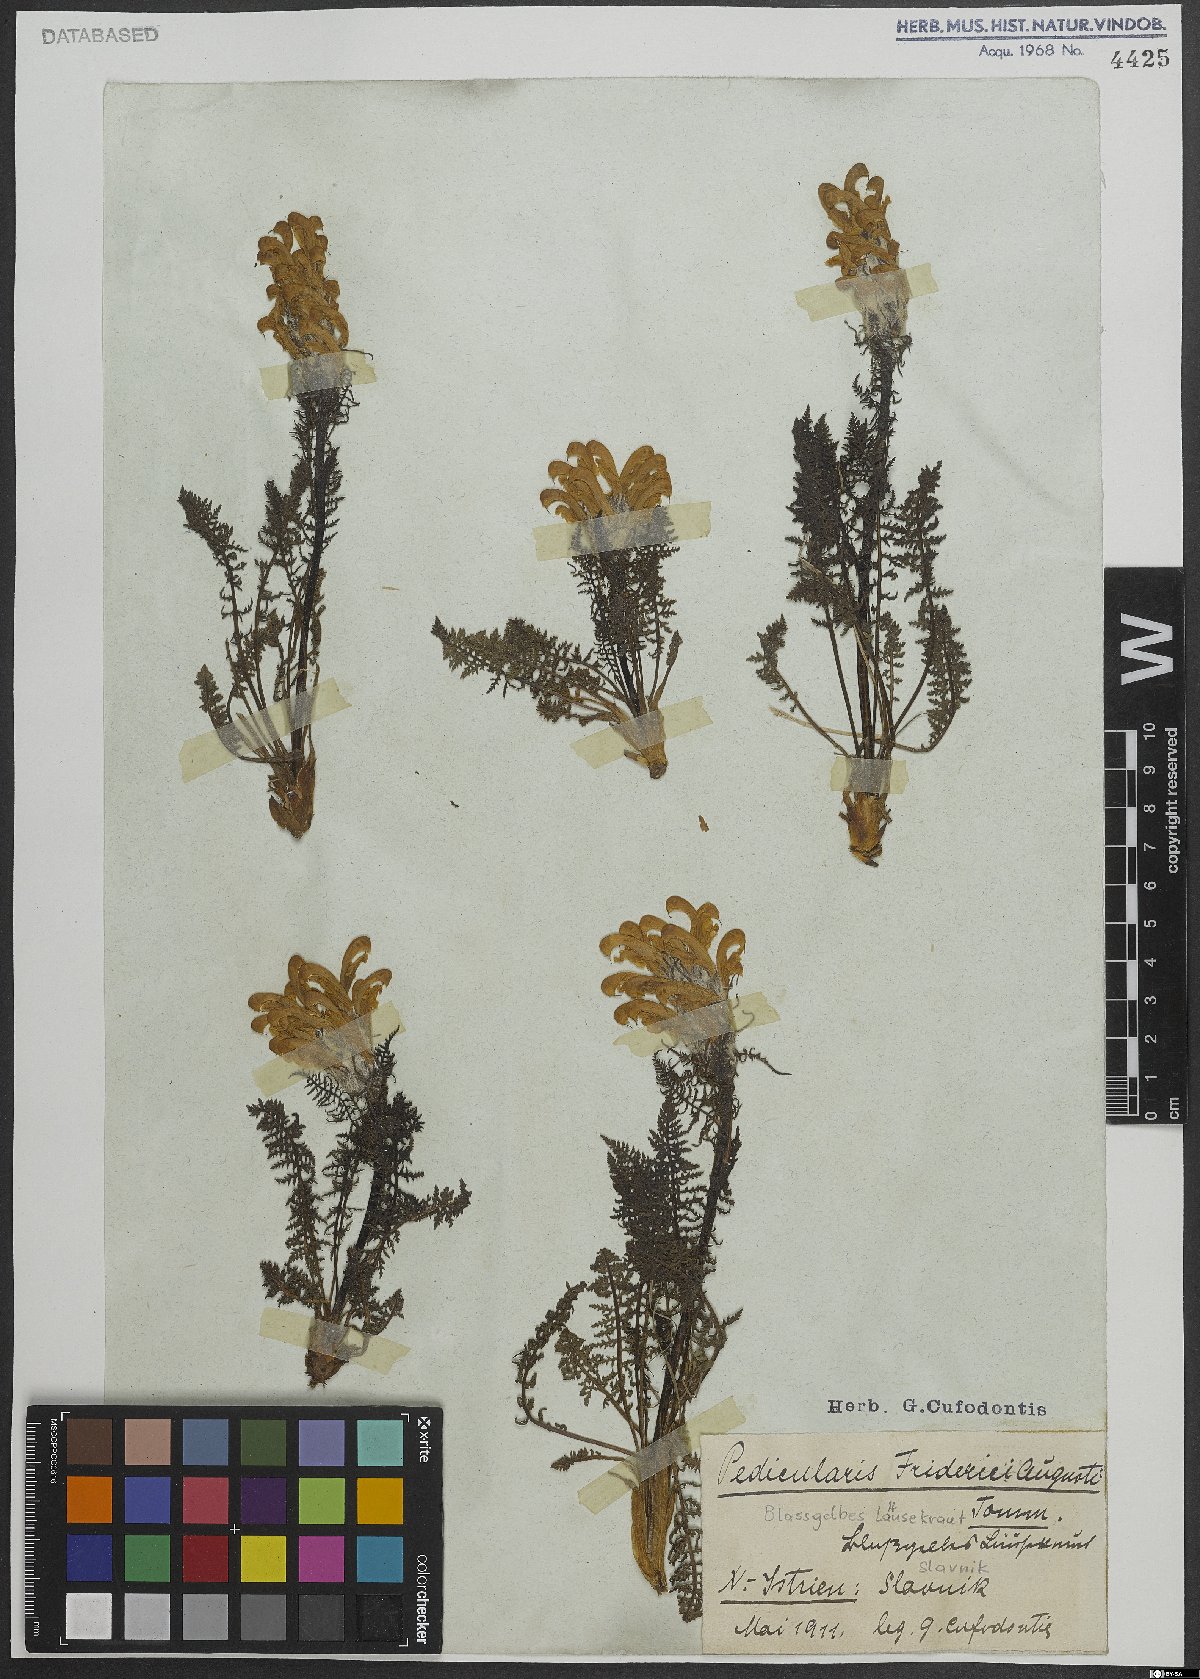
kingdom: Plantae
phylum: Tracheophyta
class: Magnoliopsida
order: Lamiales
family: Orobanchaceae
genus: Pedicularis
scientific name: Pedicularis friderici-augusti
